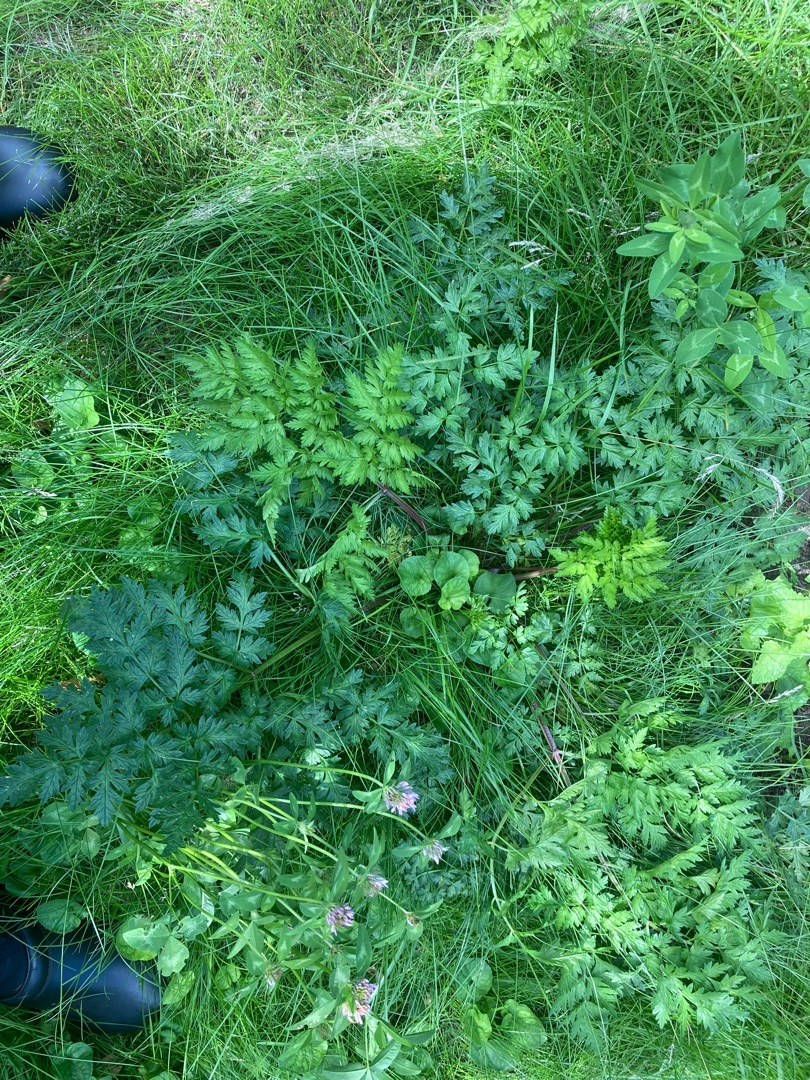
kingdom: Plantae
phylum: Tracheophyta
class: Magnoliopsida
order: Apiales
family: Apiaceae
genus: Anthriscus
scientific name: Anthriscus sylvestris
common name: Vild kørvel
